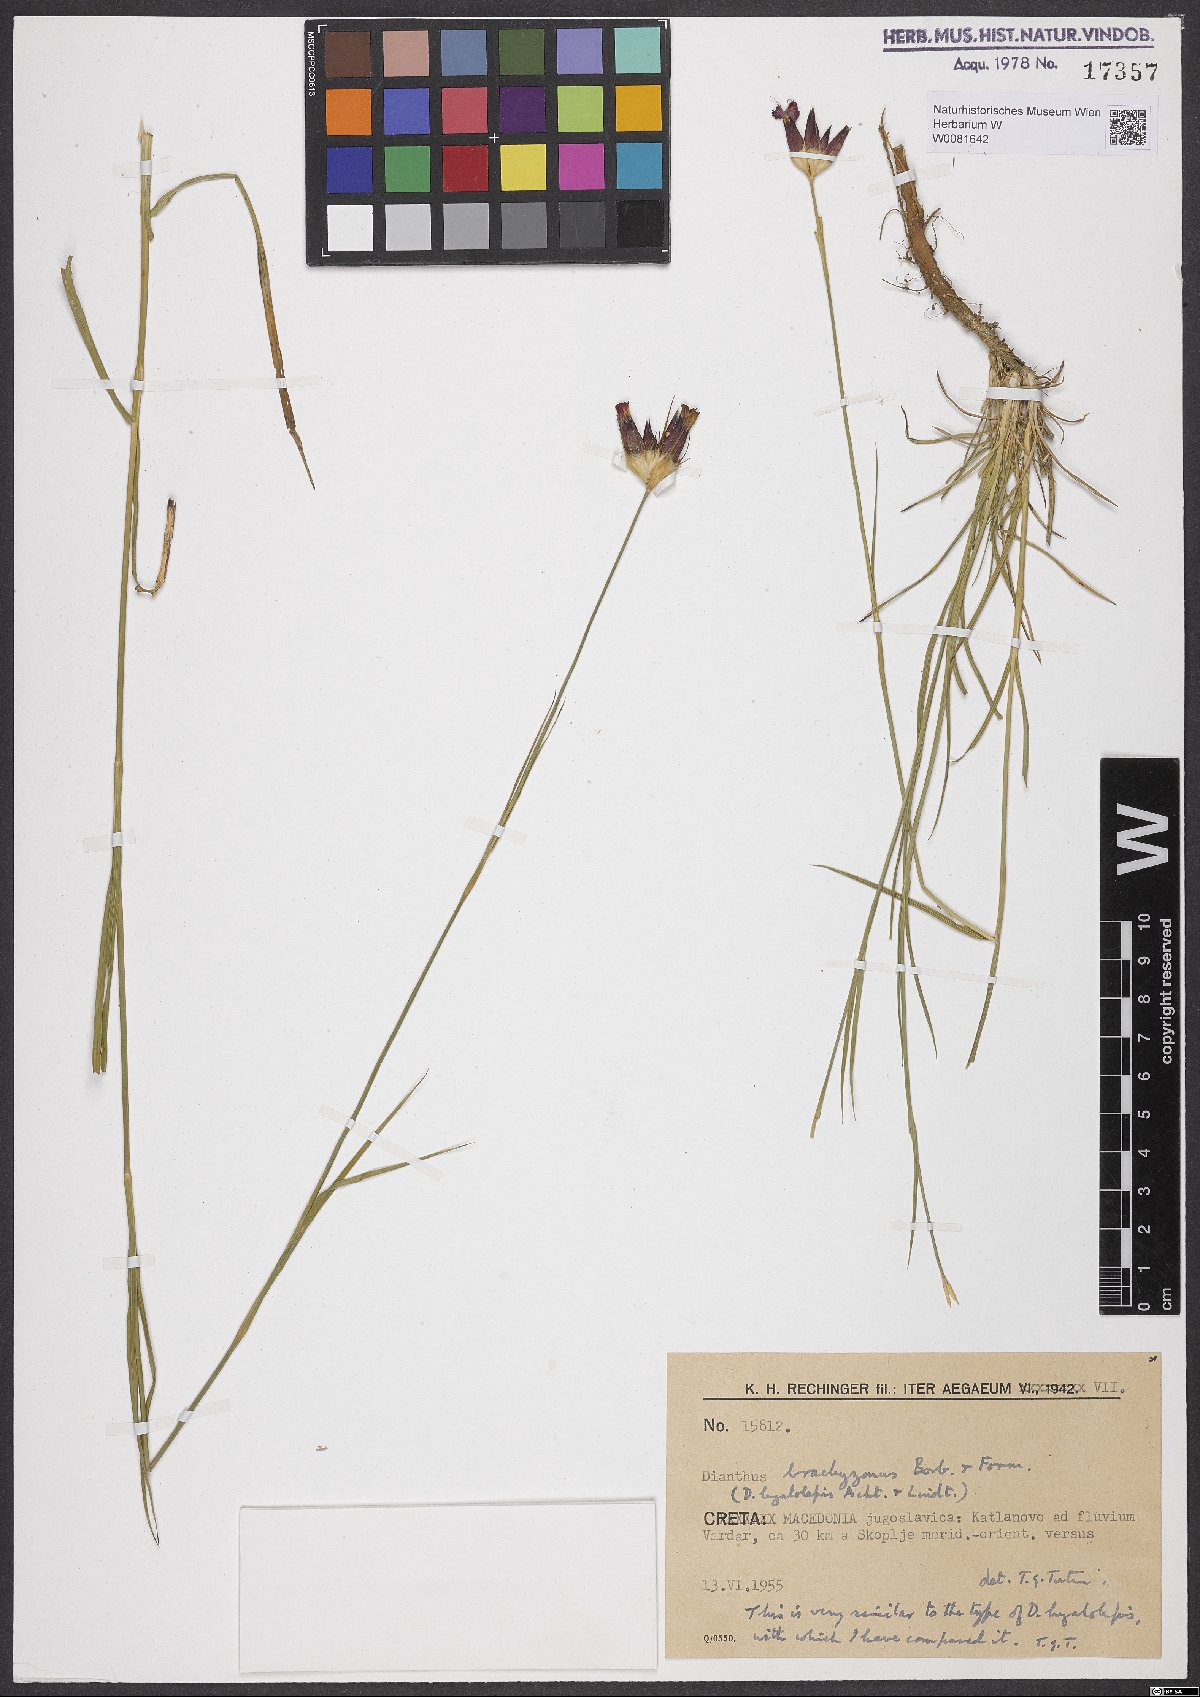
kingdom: Plantae
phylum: Tracheophyta
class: Magnoliopsida
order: Caryophyllales
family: Caryophyllaceae
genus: Dianthus
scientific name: Dianthus cruentus
